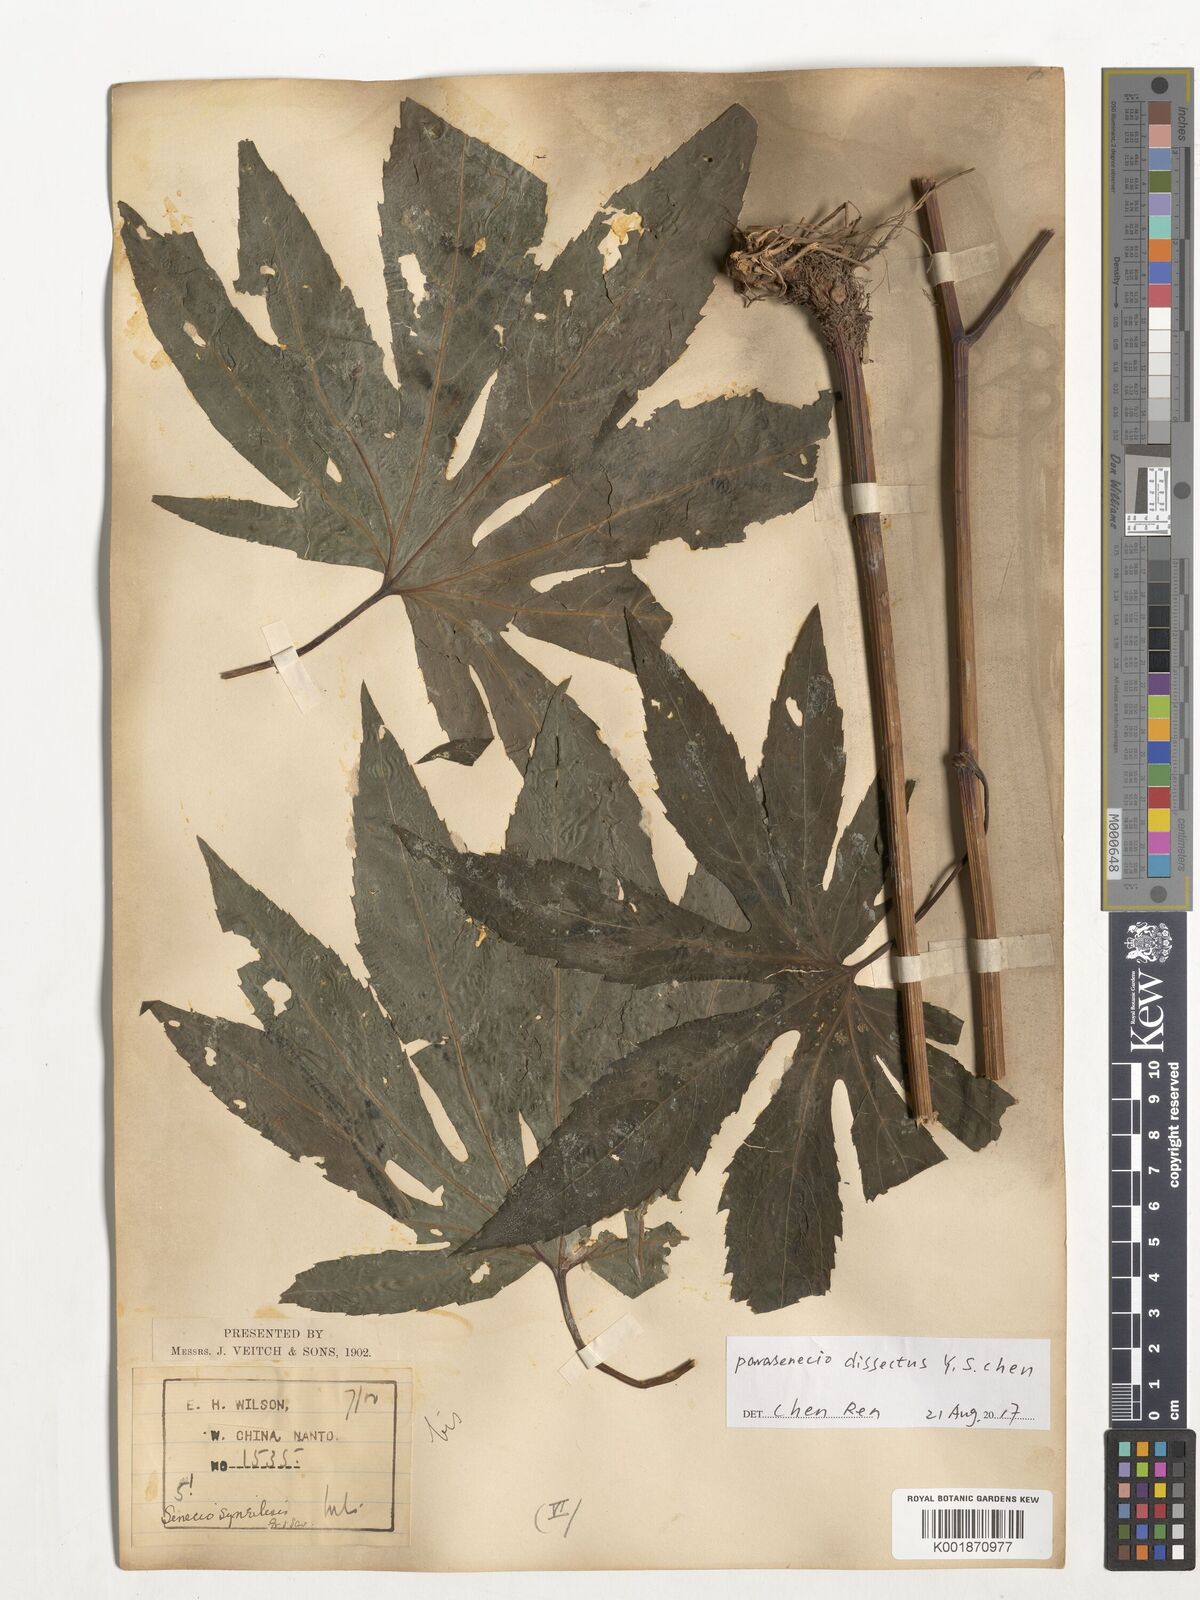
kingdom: Plantae
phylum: Tracheophyta
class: Magnoliopsida
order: Asterales
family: Asteraceae
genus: Parasenecio
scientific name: Parasenecio dissectus
